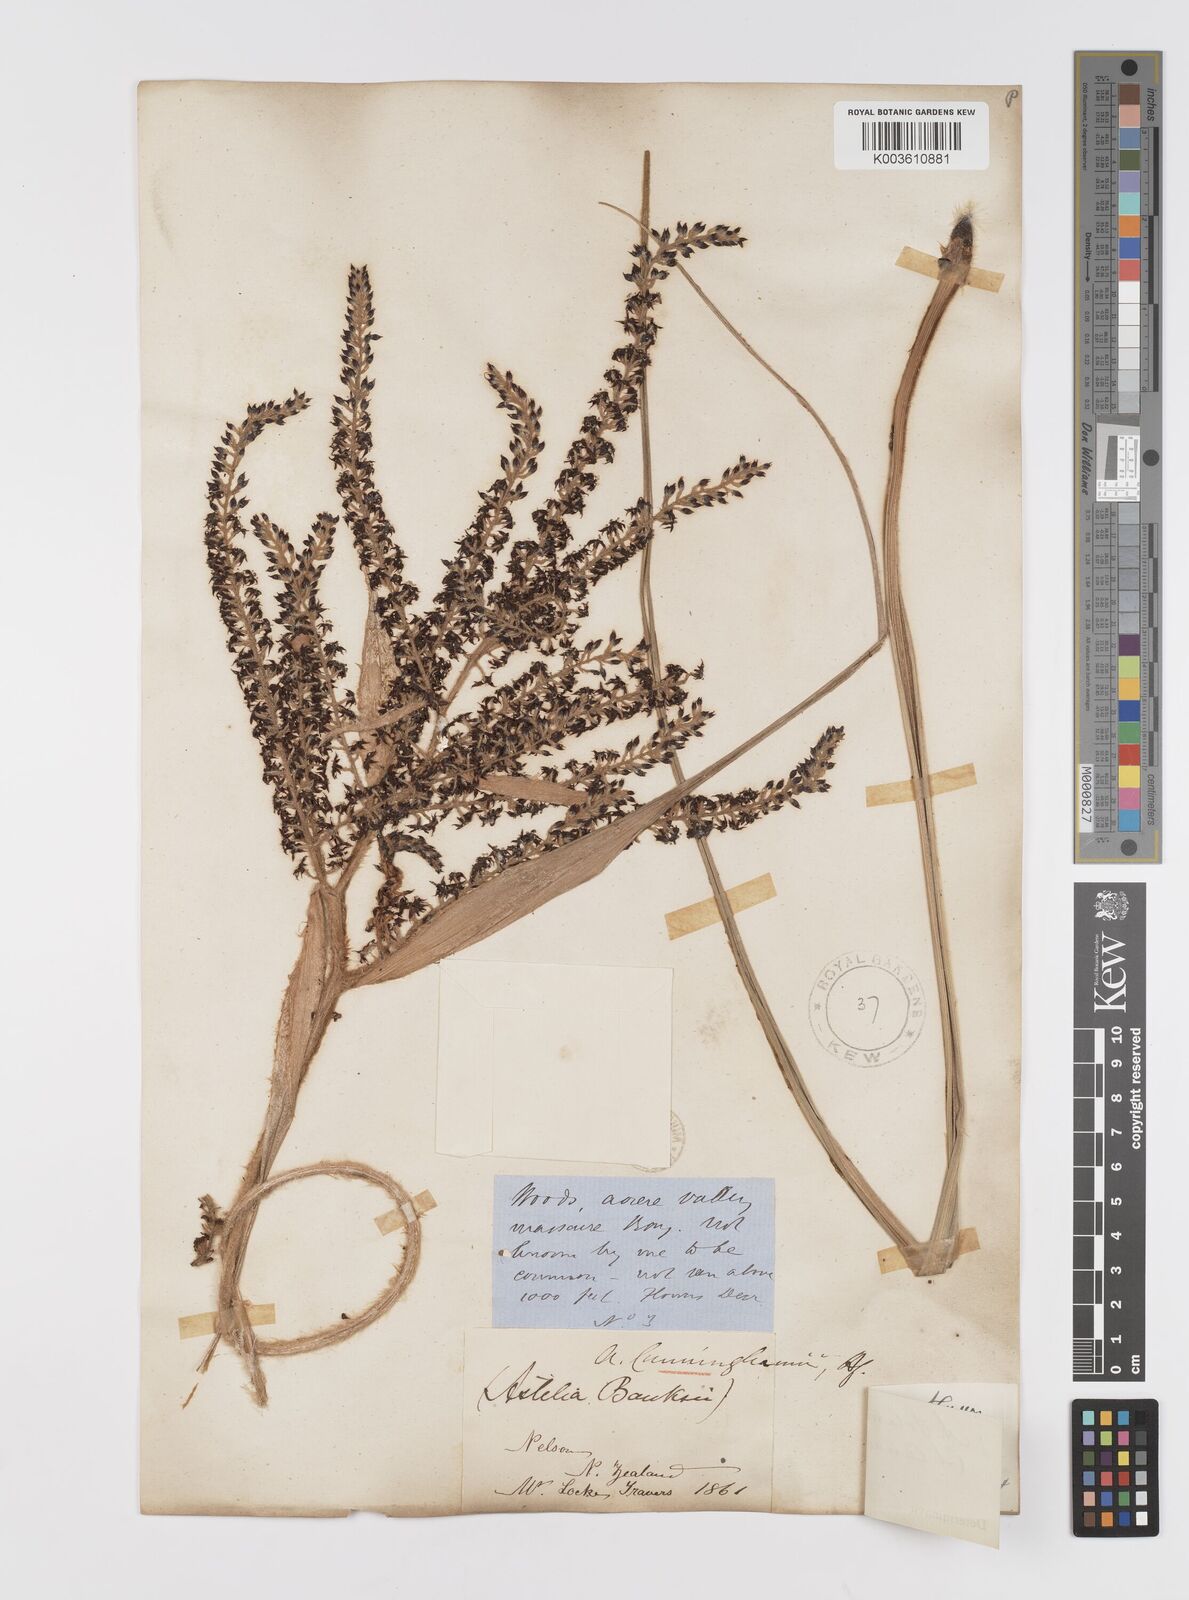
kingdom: Plantae
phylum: Tracheophyta
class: Liliopsida
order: Asparagales
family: Asteliaceae
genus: Astelia
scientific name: Astelia solandri
